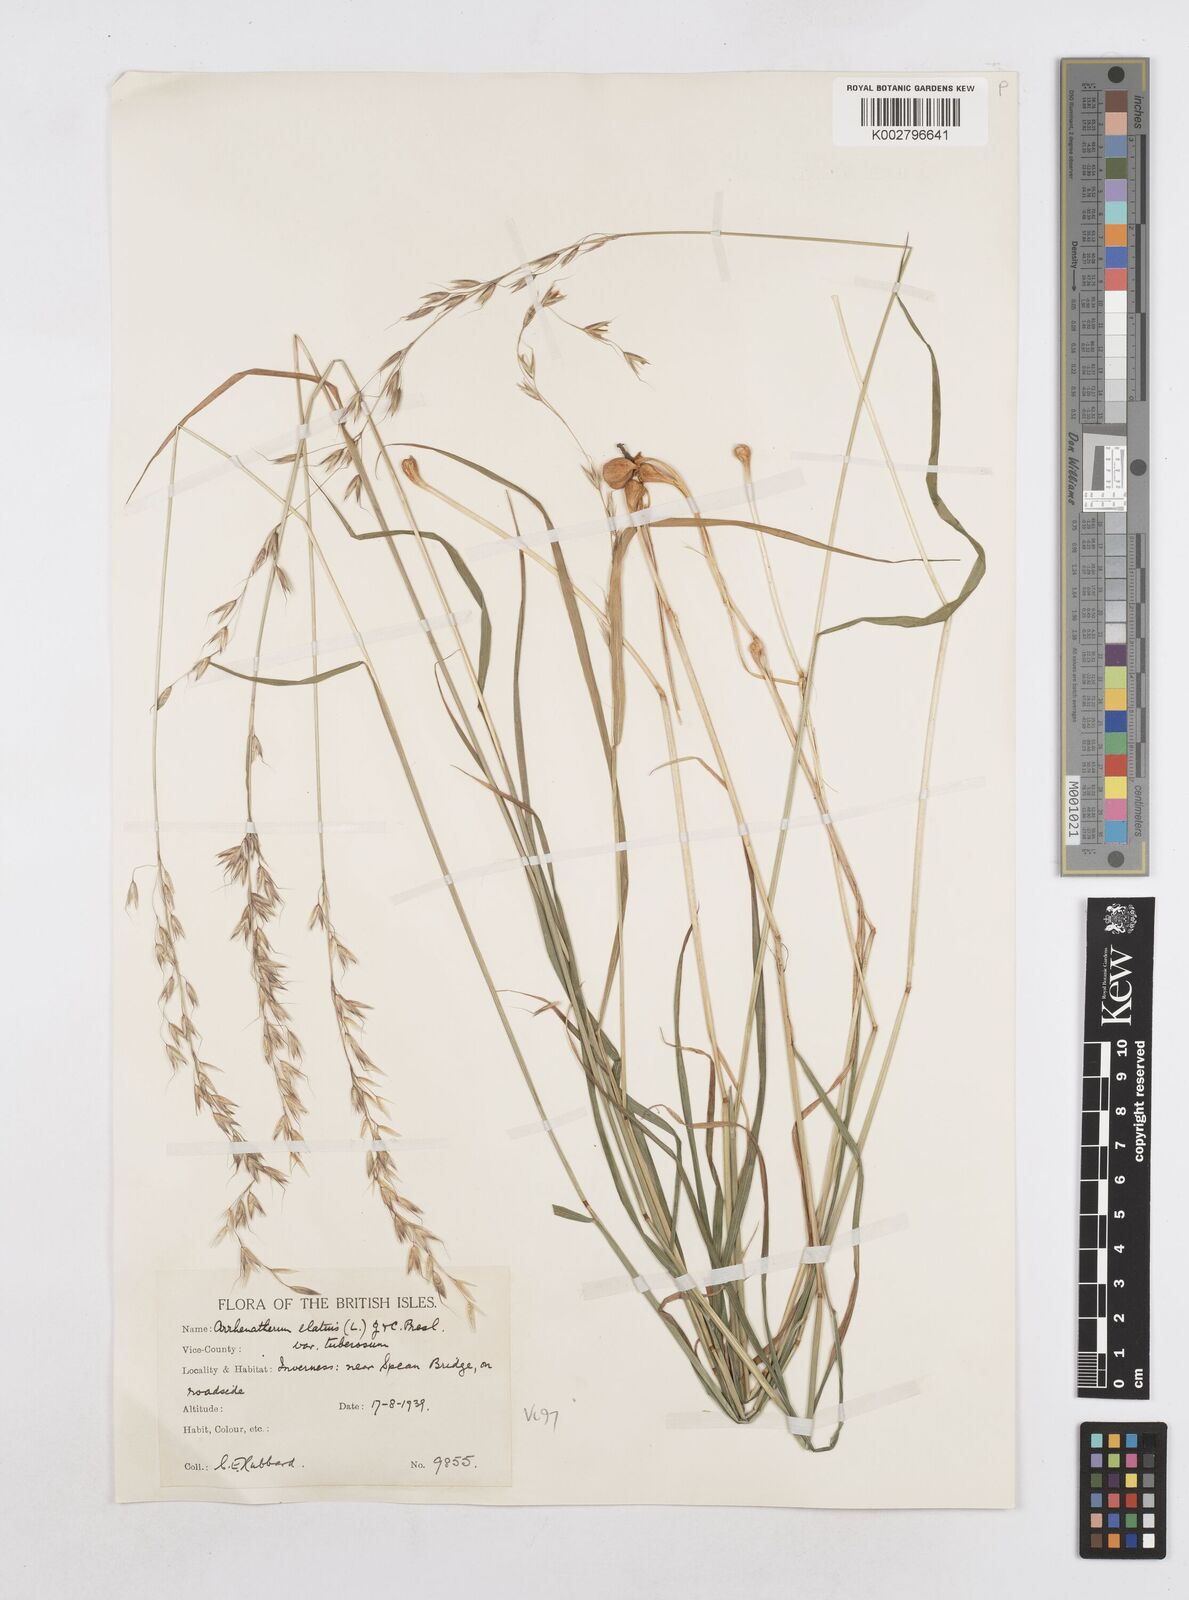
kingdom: Plantae
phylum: Tracheophyta
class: Liliopsida
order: Poales
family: Poaceae
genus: Arrhenatherum
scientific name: Arrhenatherum elatius
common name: Tall oatgrass
